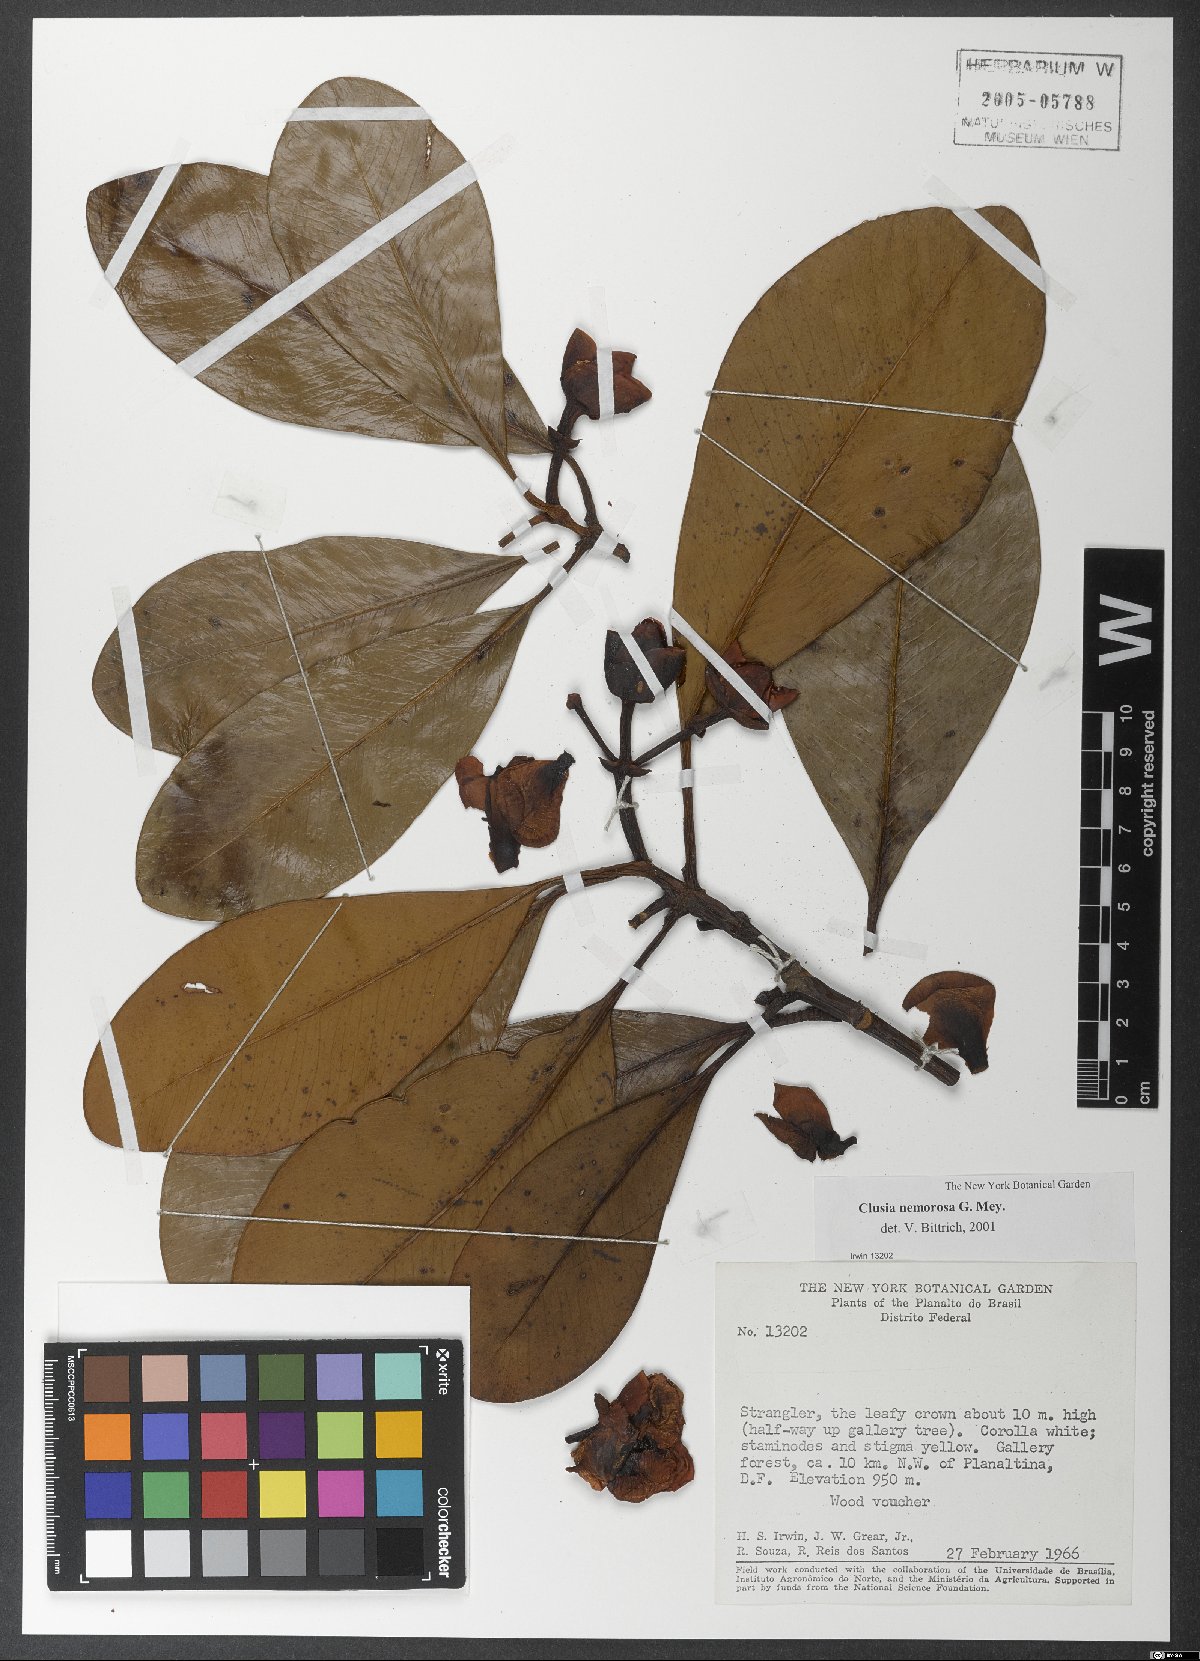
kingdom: Plantae
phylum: Tracheophyta
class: Magnoliopsida
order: Malpighiales
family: Clusiaceae
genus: Clusia
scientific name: Clusia nemorosa
